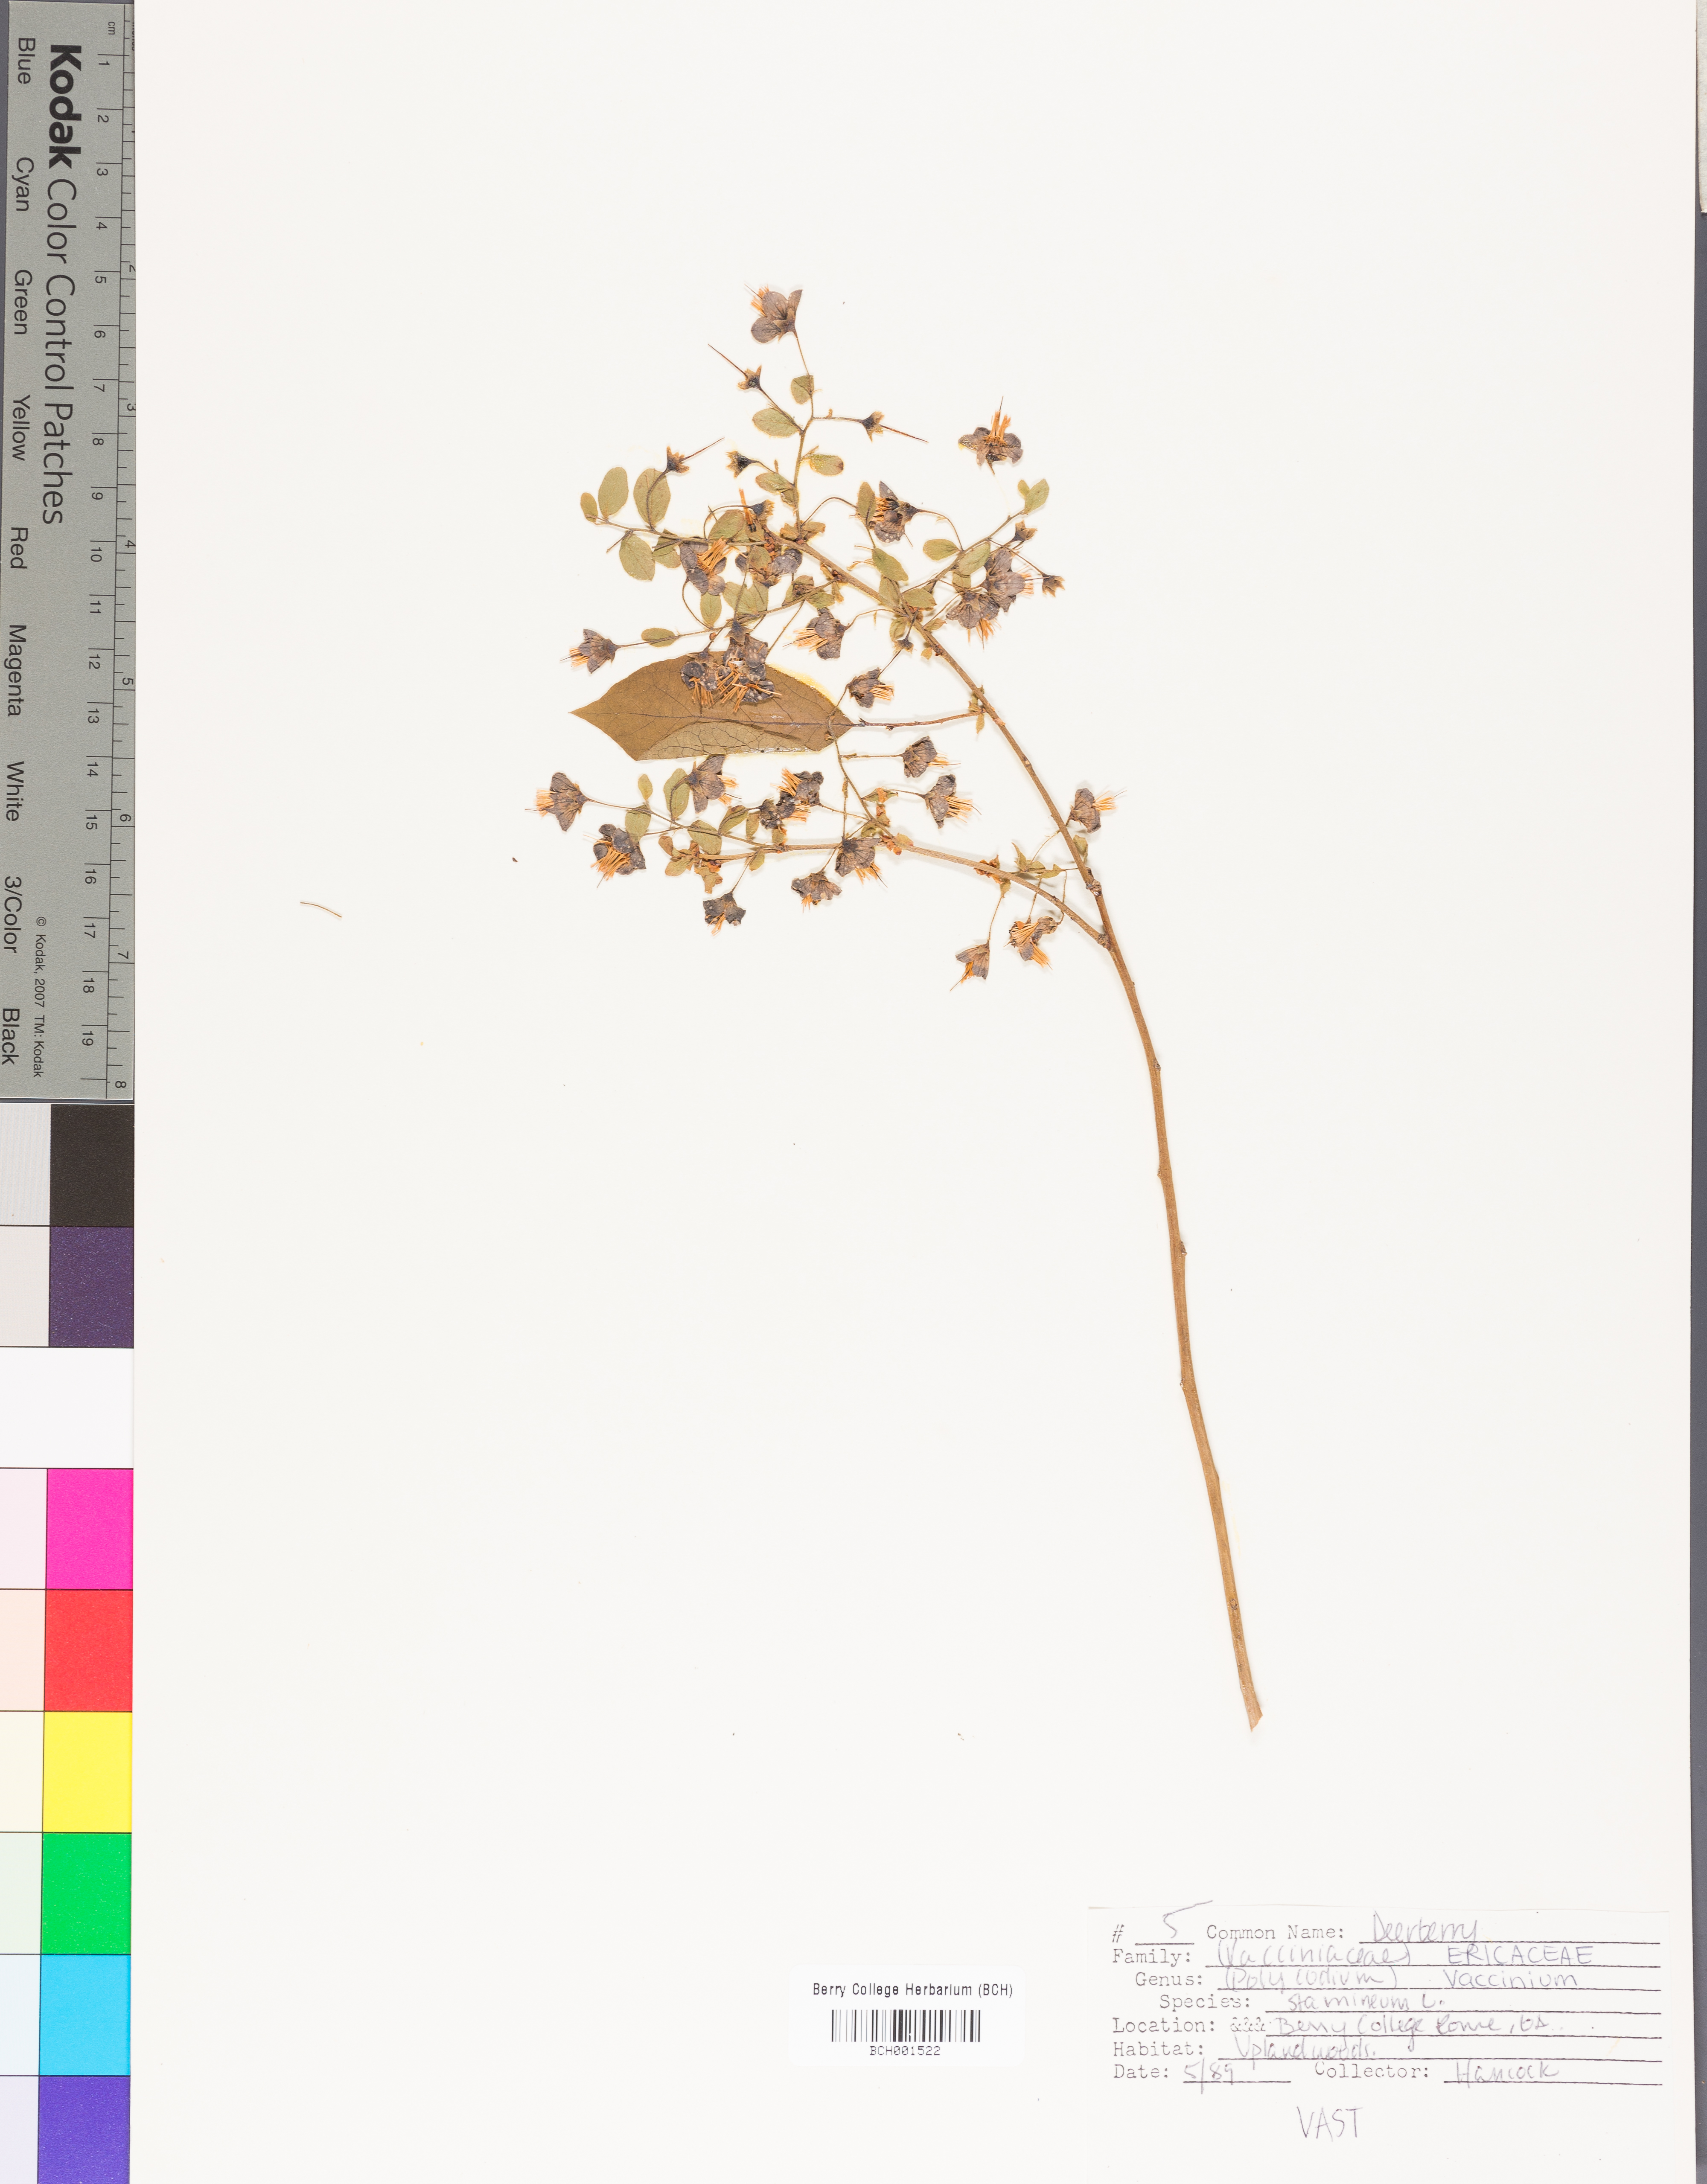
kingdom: Plantae
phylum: Tracheophyta
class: Magnoliopsida
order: Ericales
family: Ericaceae
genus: Vaccinium
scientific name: Vaccinium stamineum
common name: Deerberry
